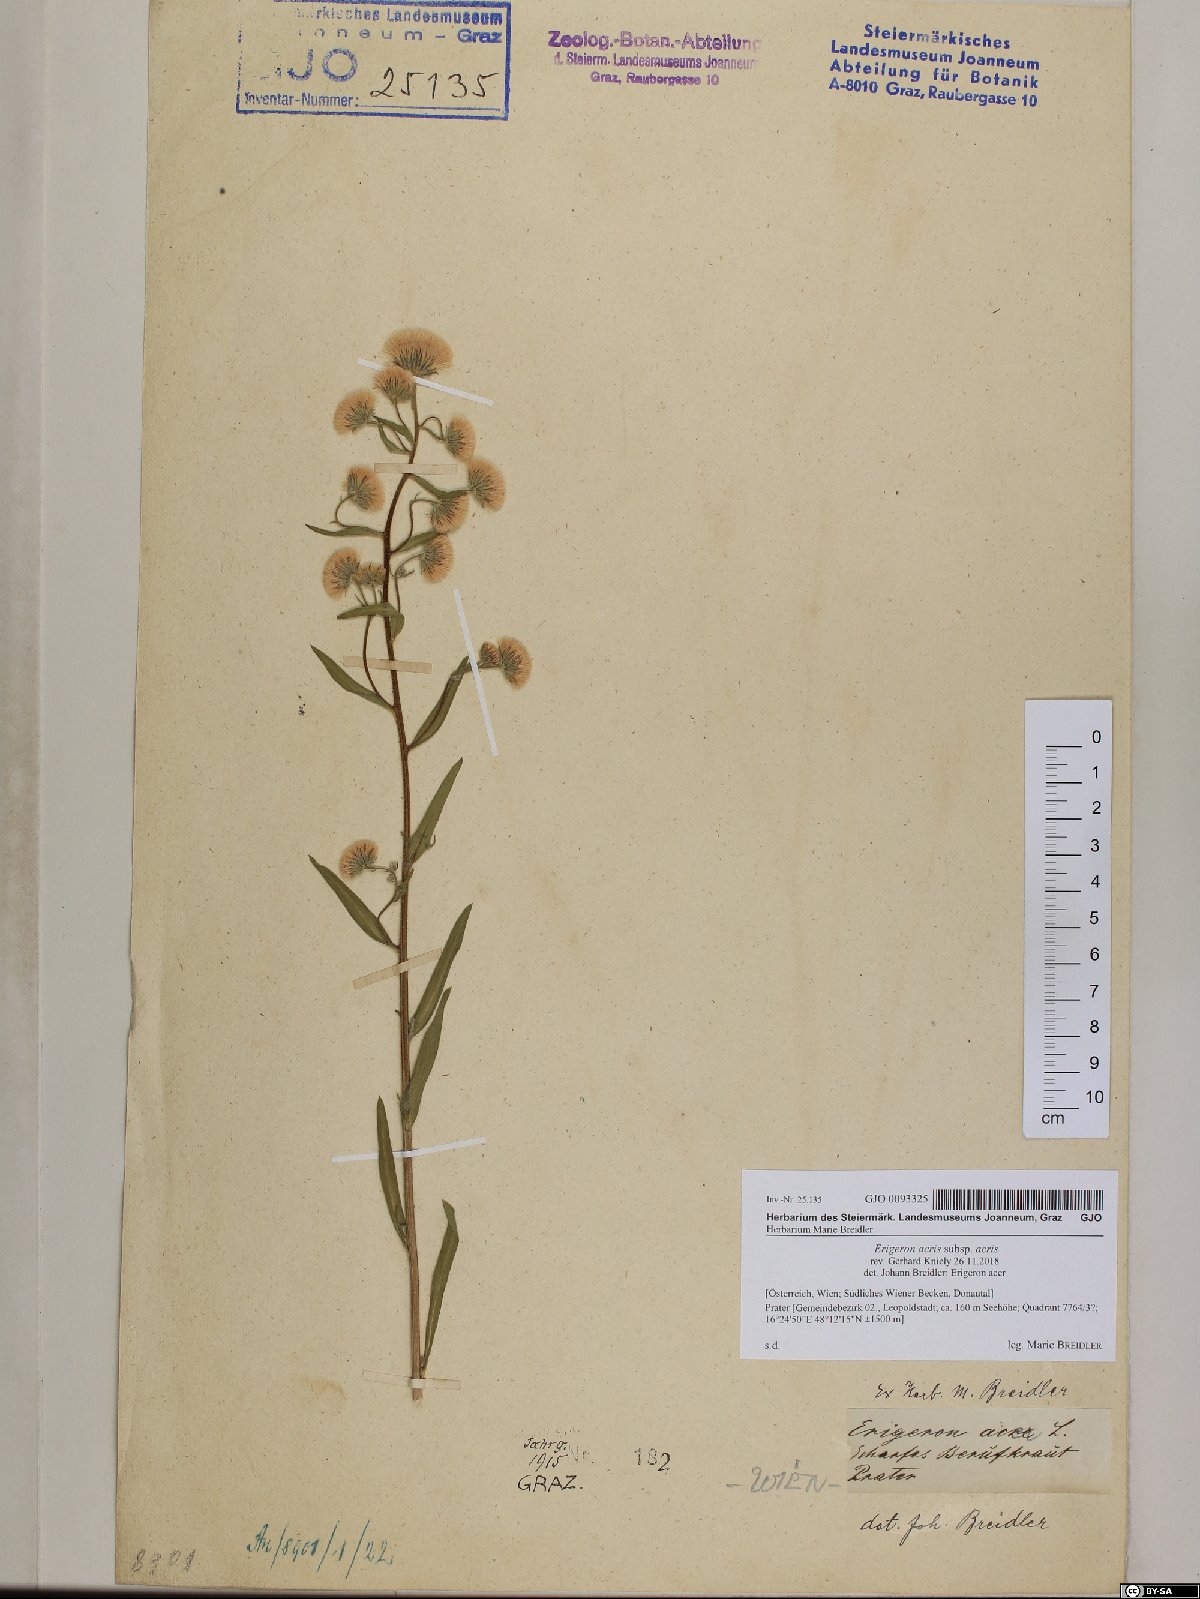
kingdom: Plantae
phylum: Tracheophyta
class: Magnoliopsida
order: Asterales
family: Asteraceae
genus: Erigeron
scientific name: Erigeron acris
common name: Blue fleabane
